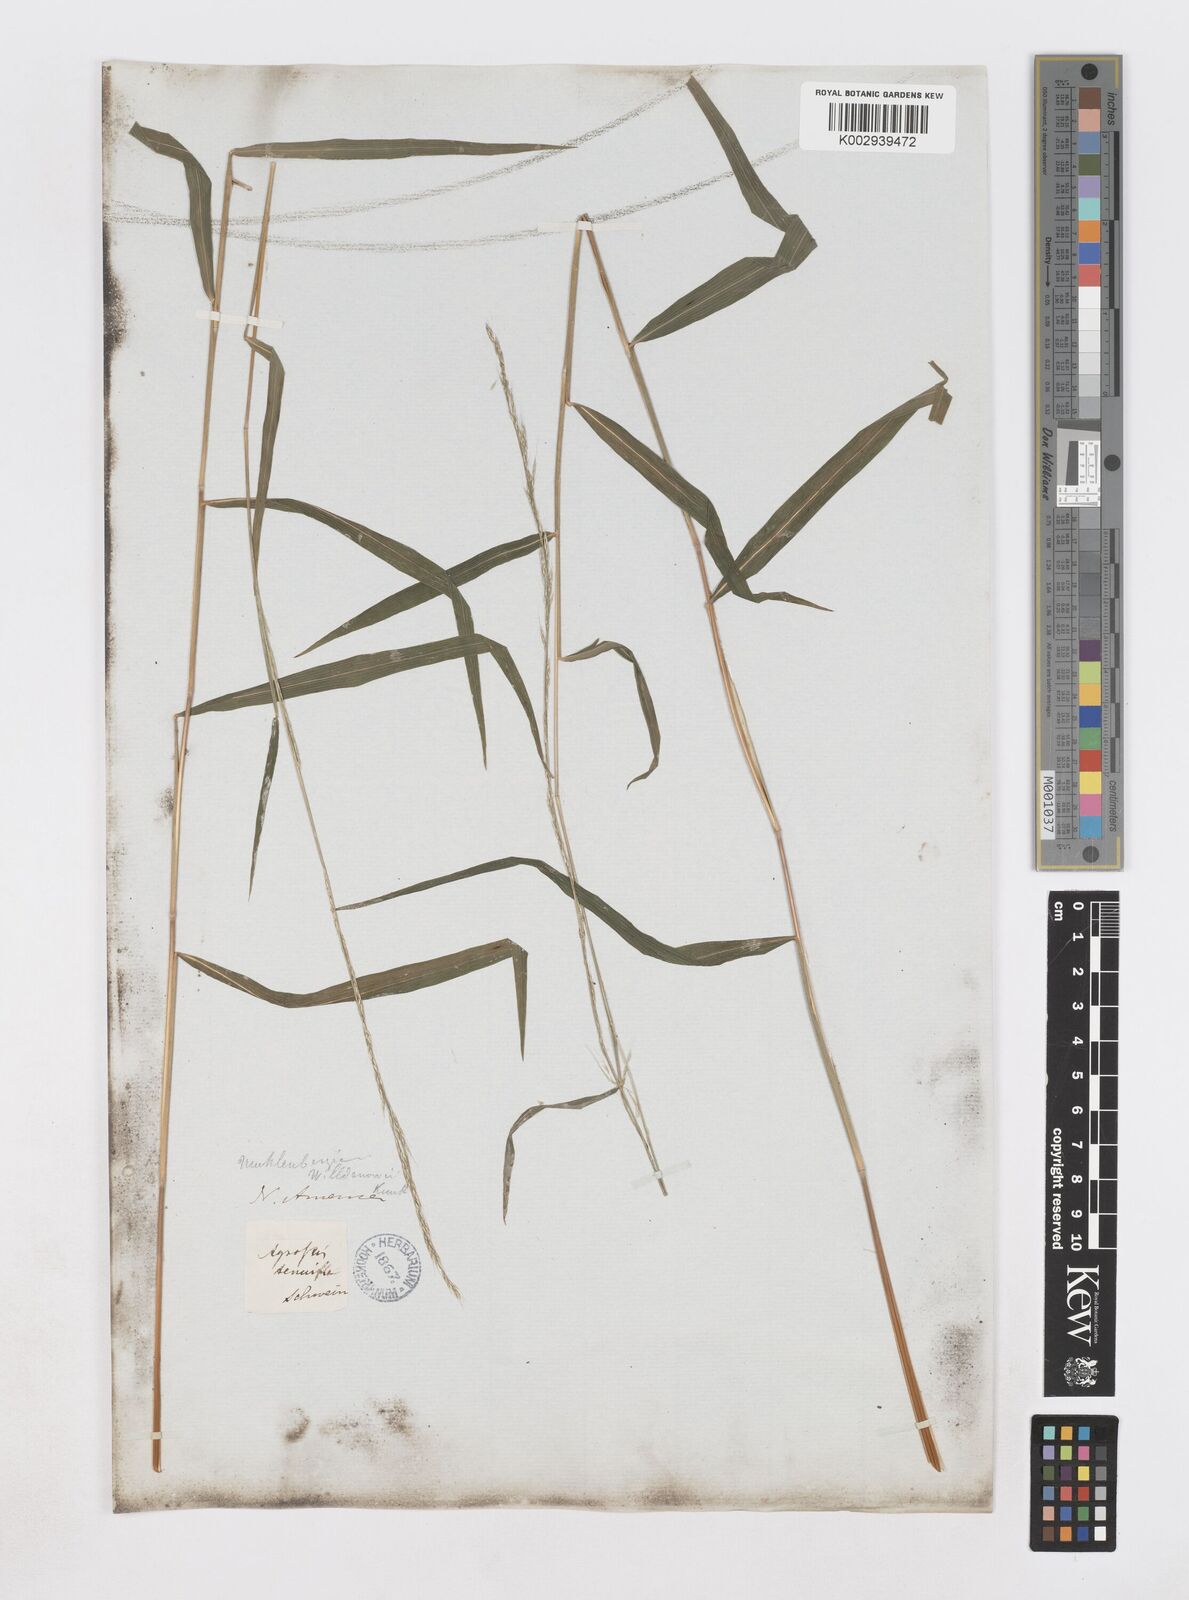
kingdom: Plantae
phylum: Tracheophyta
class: Liliopsida
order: Poales
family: Poaceae
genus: Muhlenbergia
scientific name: Muhlenbergia tenuiflora
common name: Slender muhly
